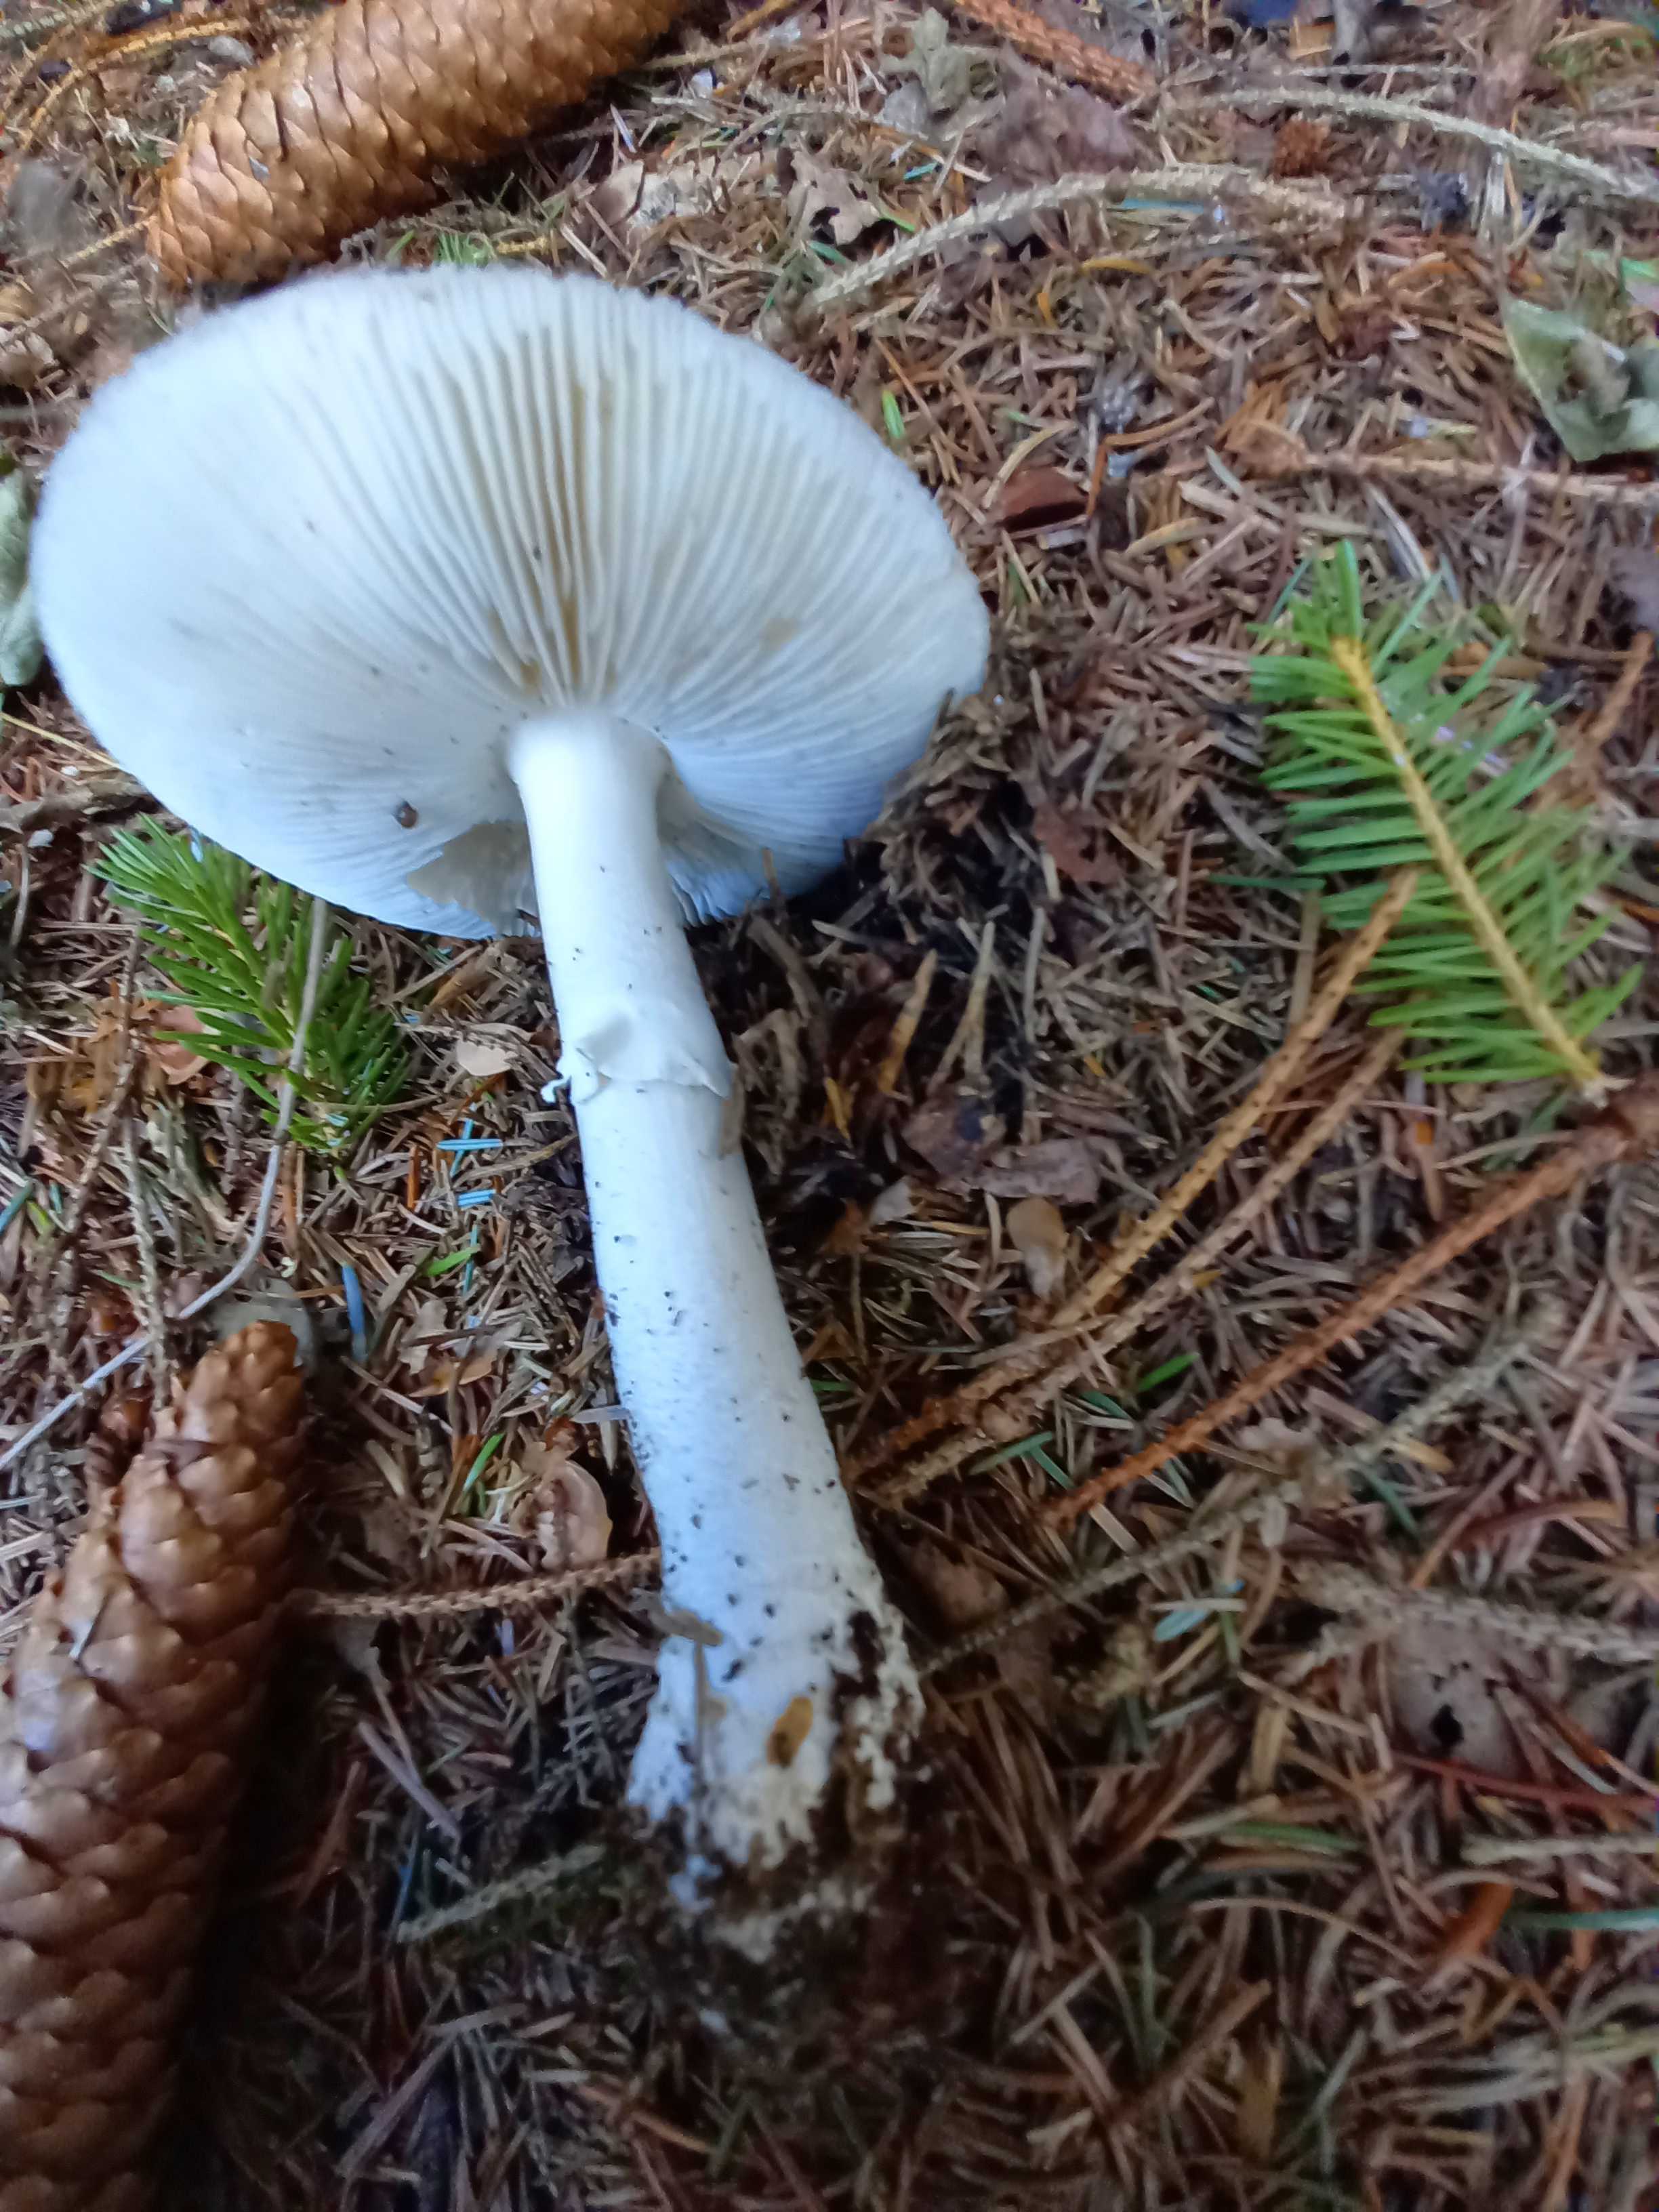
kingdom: Fungi
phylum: Basidiomycota
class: Agaricomycetes
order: Agaricales
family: Amanitaceae
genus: Amanita
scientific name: Amanita
